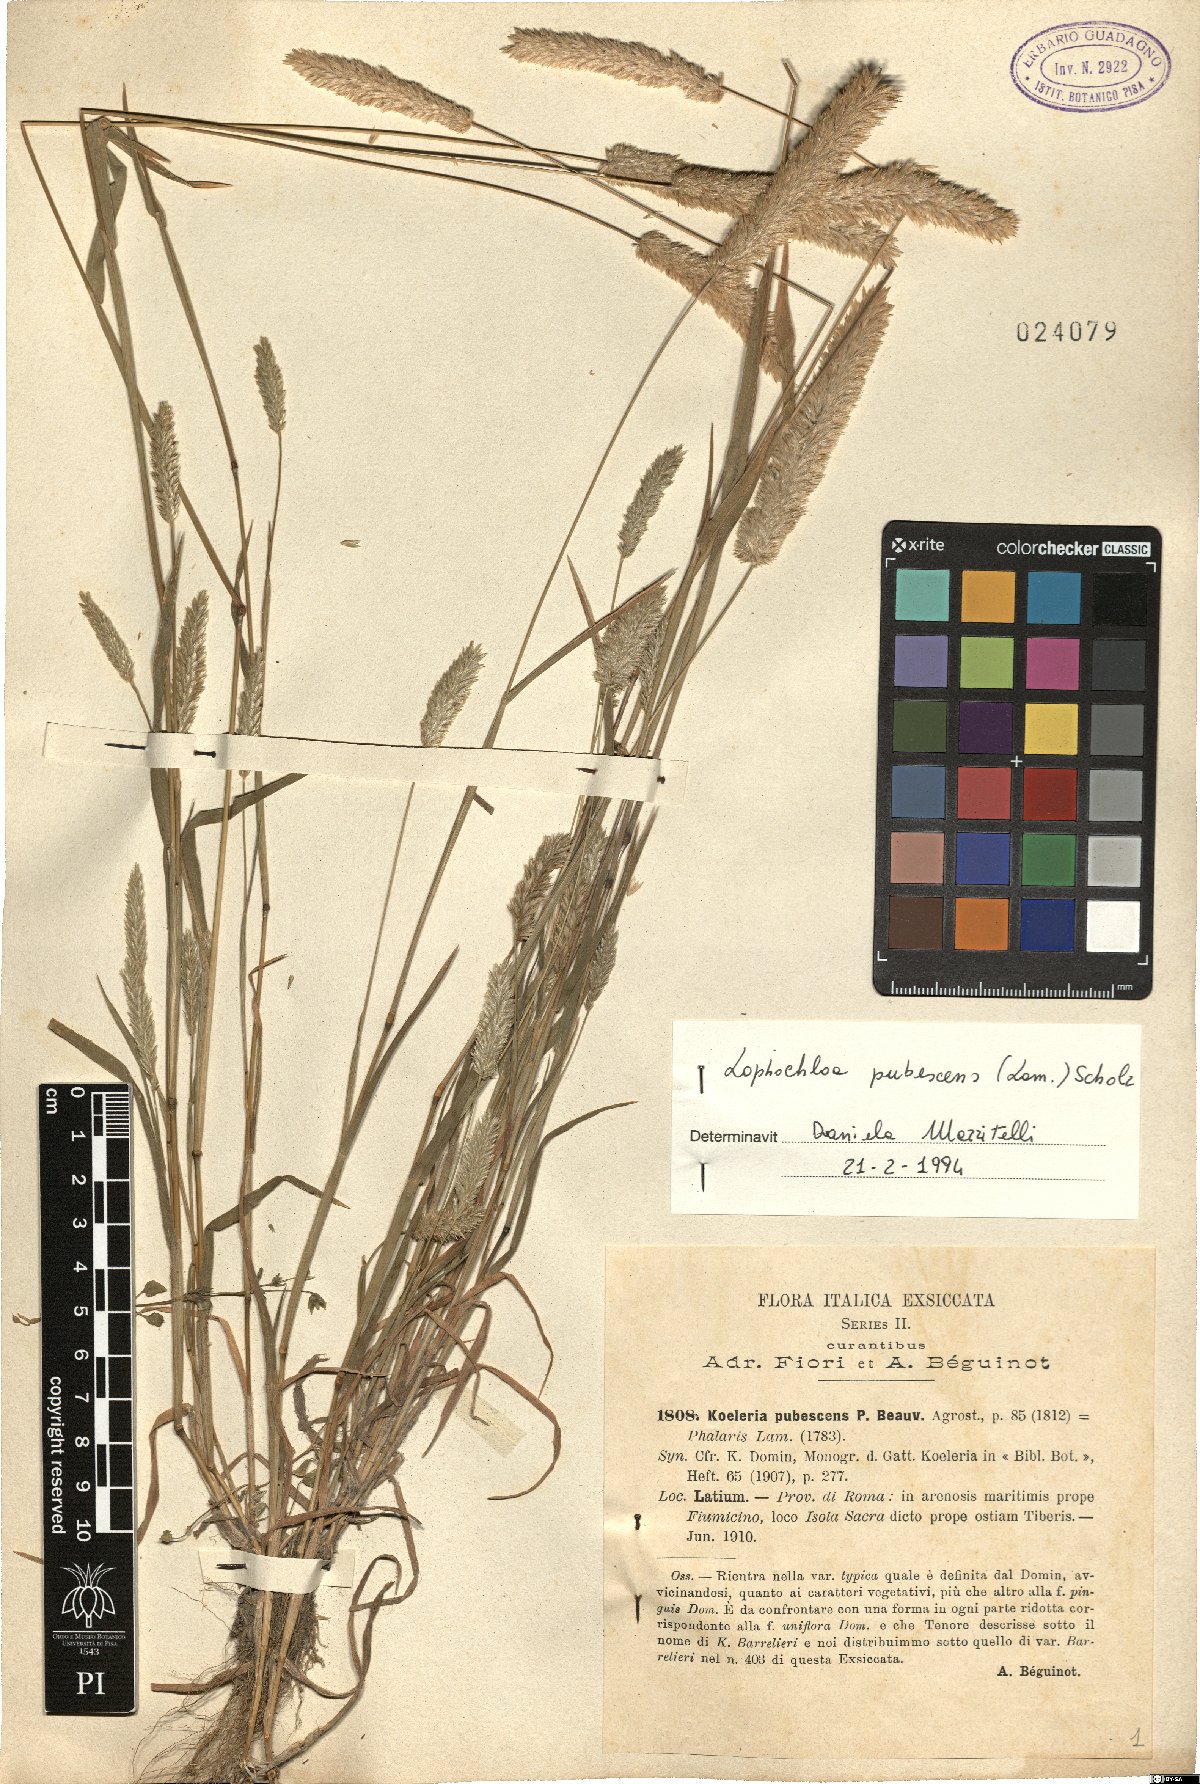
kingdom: Plantae
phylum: Tracheophyta
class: Liliopsida
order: Poales
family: Poaceae
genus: Rostraria
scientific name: Rostraria litorea
